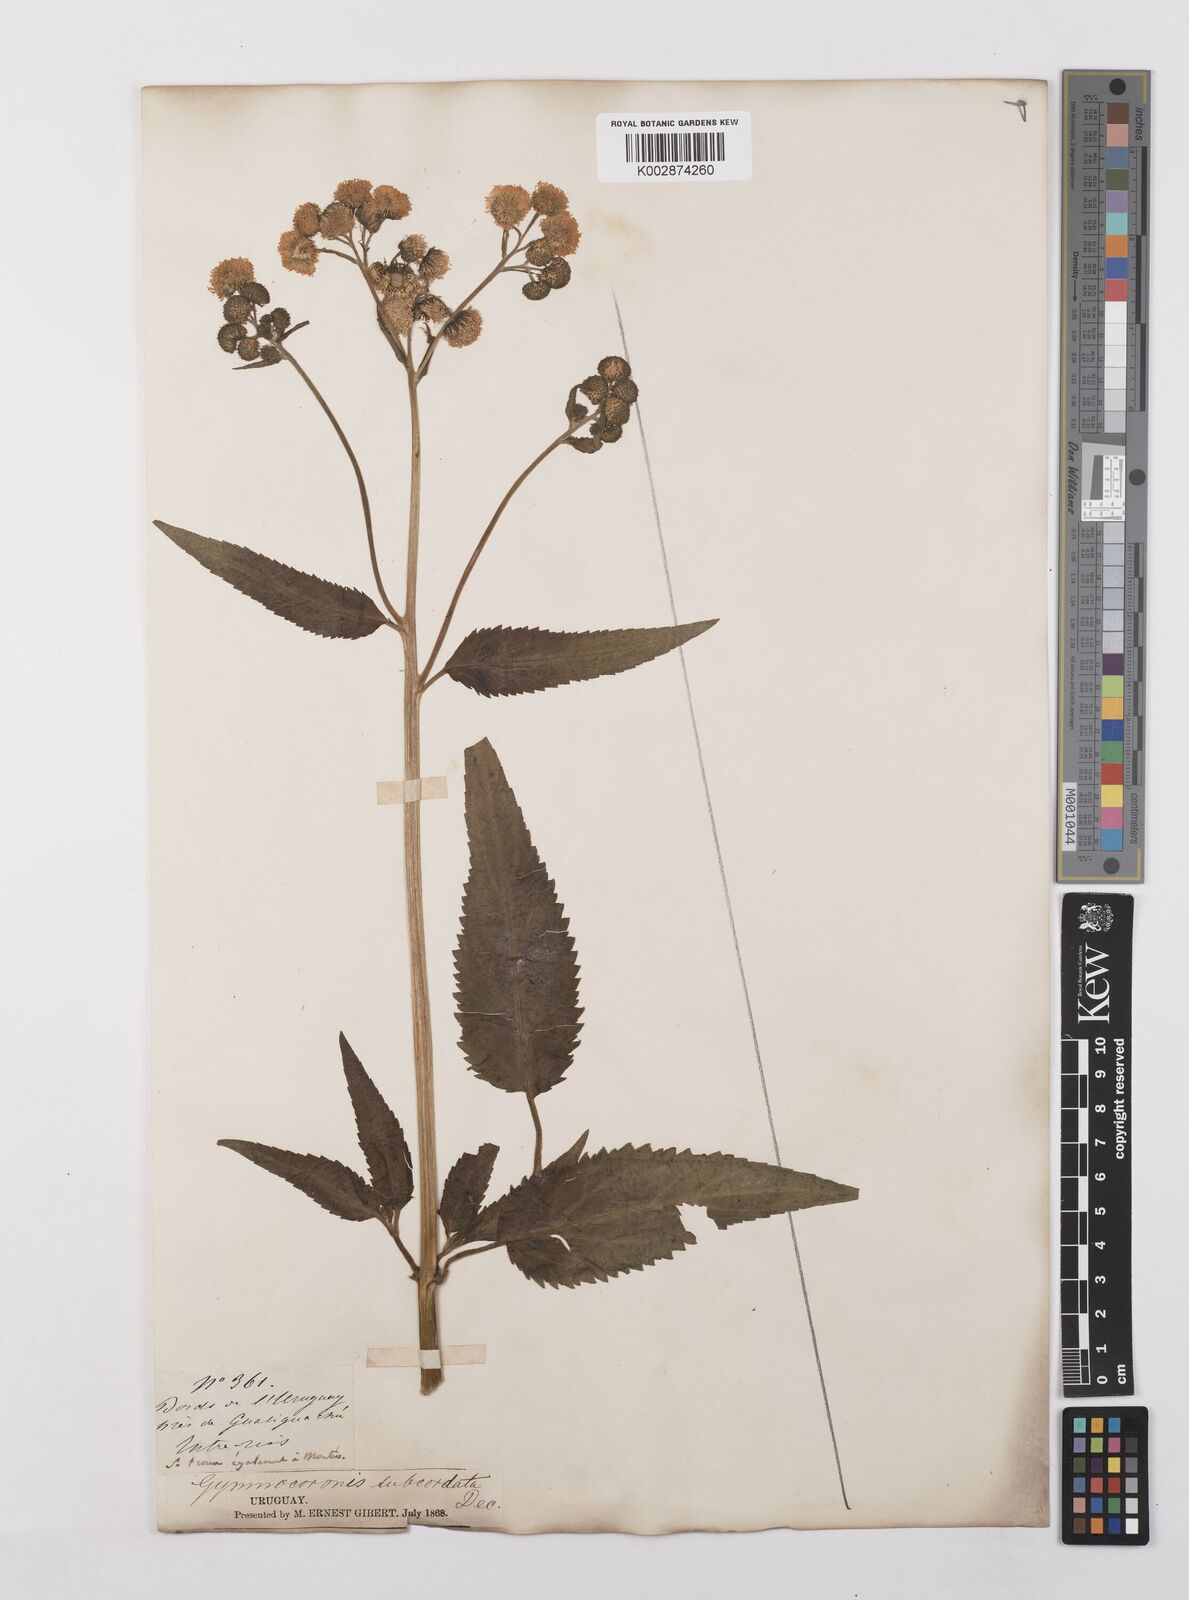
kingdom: Plantae
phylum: Tracheophyta
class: Magnoliopsida
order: Asterales
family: Asteraceae
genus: Gymnocoronis
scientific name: Gymnocoronis spilanthoides
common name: Senegal teaplant
